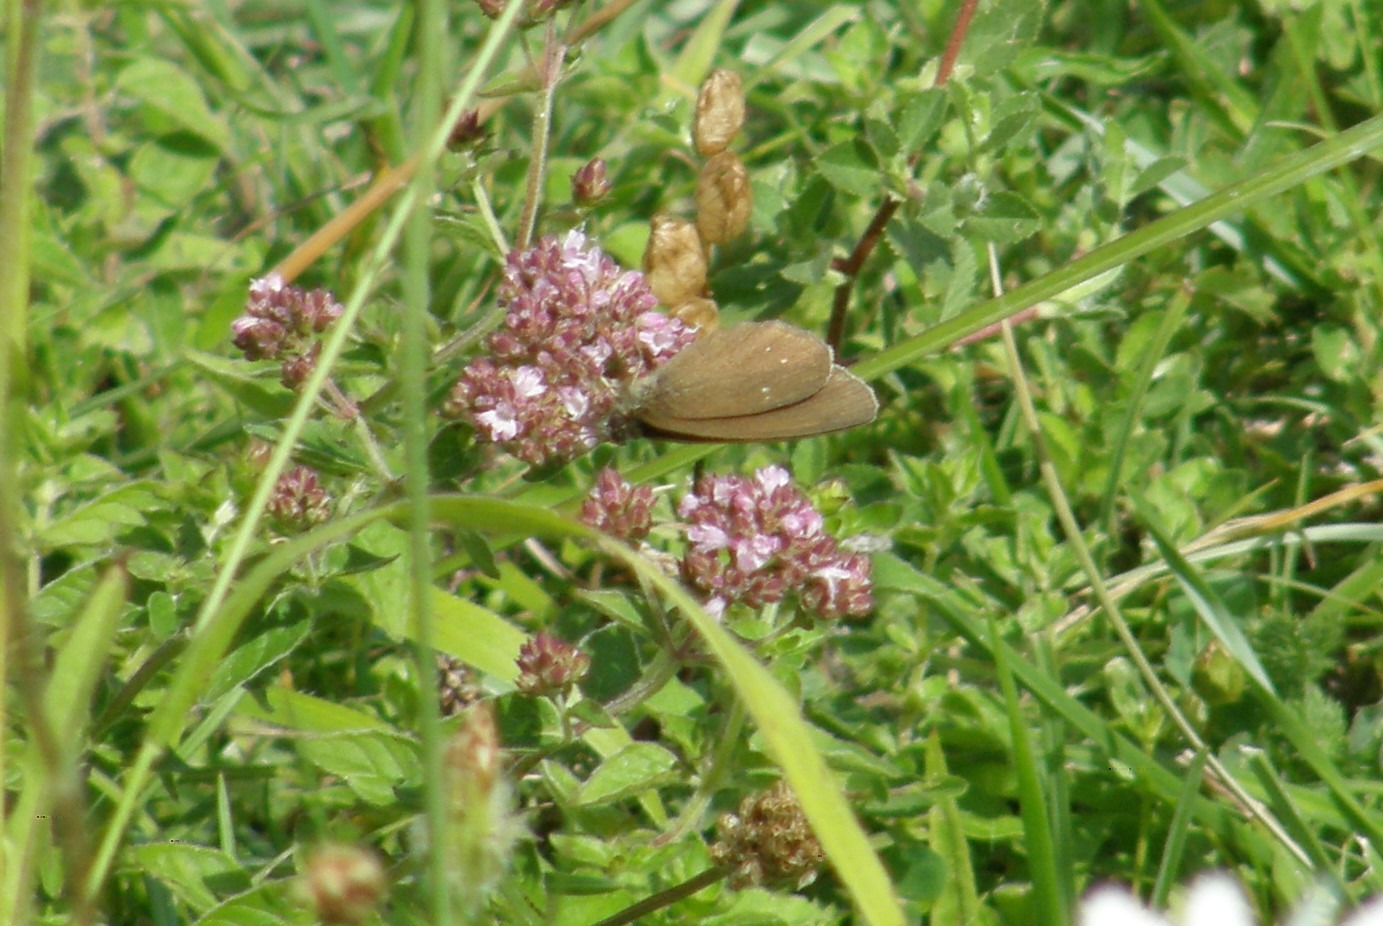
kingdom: Animalia
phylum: Arthropoda
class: Insecta
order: Lepidoptera
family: Nymphalidae
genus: Aphantopus
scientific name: Aphantopus hyperantus
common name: Engrandøje
